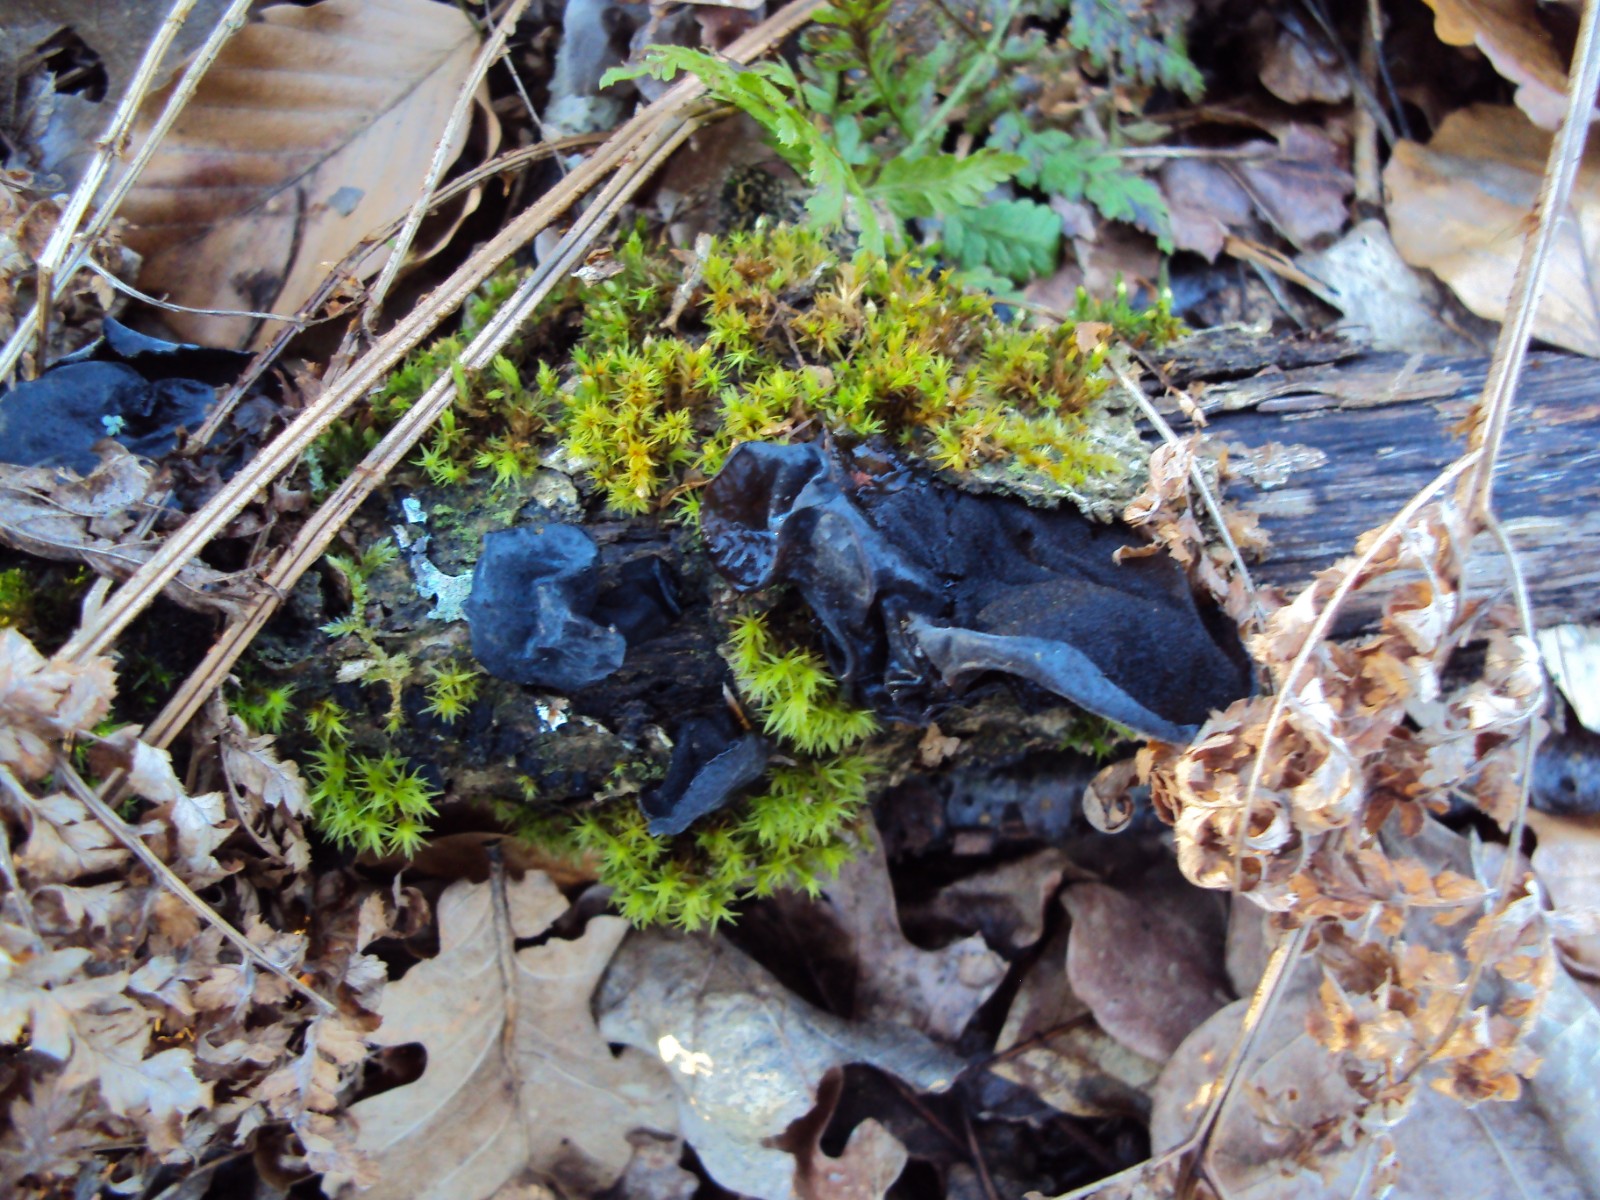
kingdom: Fungi
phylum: Basidiomycota
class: Agaricomycetes
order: Auriculariales
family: Auriculariaceae
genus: Exidia
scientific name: Exidia glandulosa
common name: ege-bævretop
